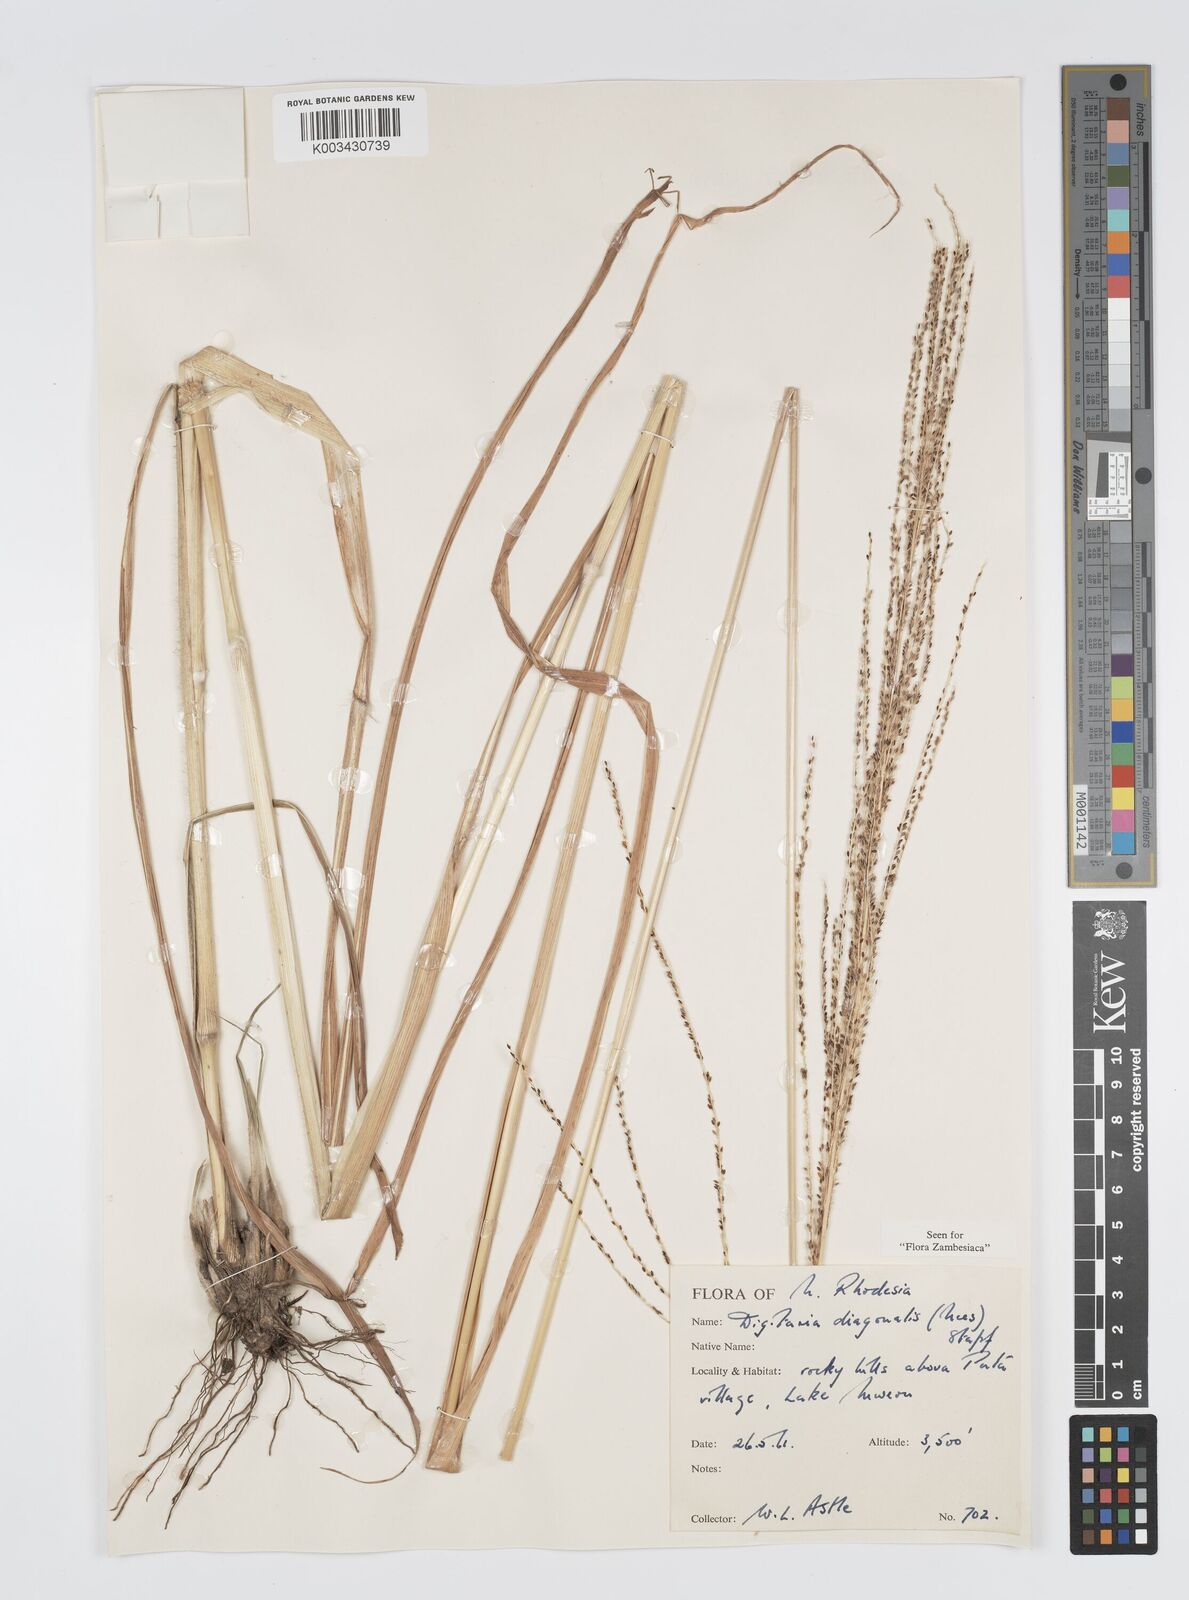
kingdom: Plantae
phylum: Tracheophyta
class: Liliopsida
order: Poales
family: Poaceae
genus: Digitaria
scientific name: Digitaria diagonalis
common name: Brown-seed finger grass
